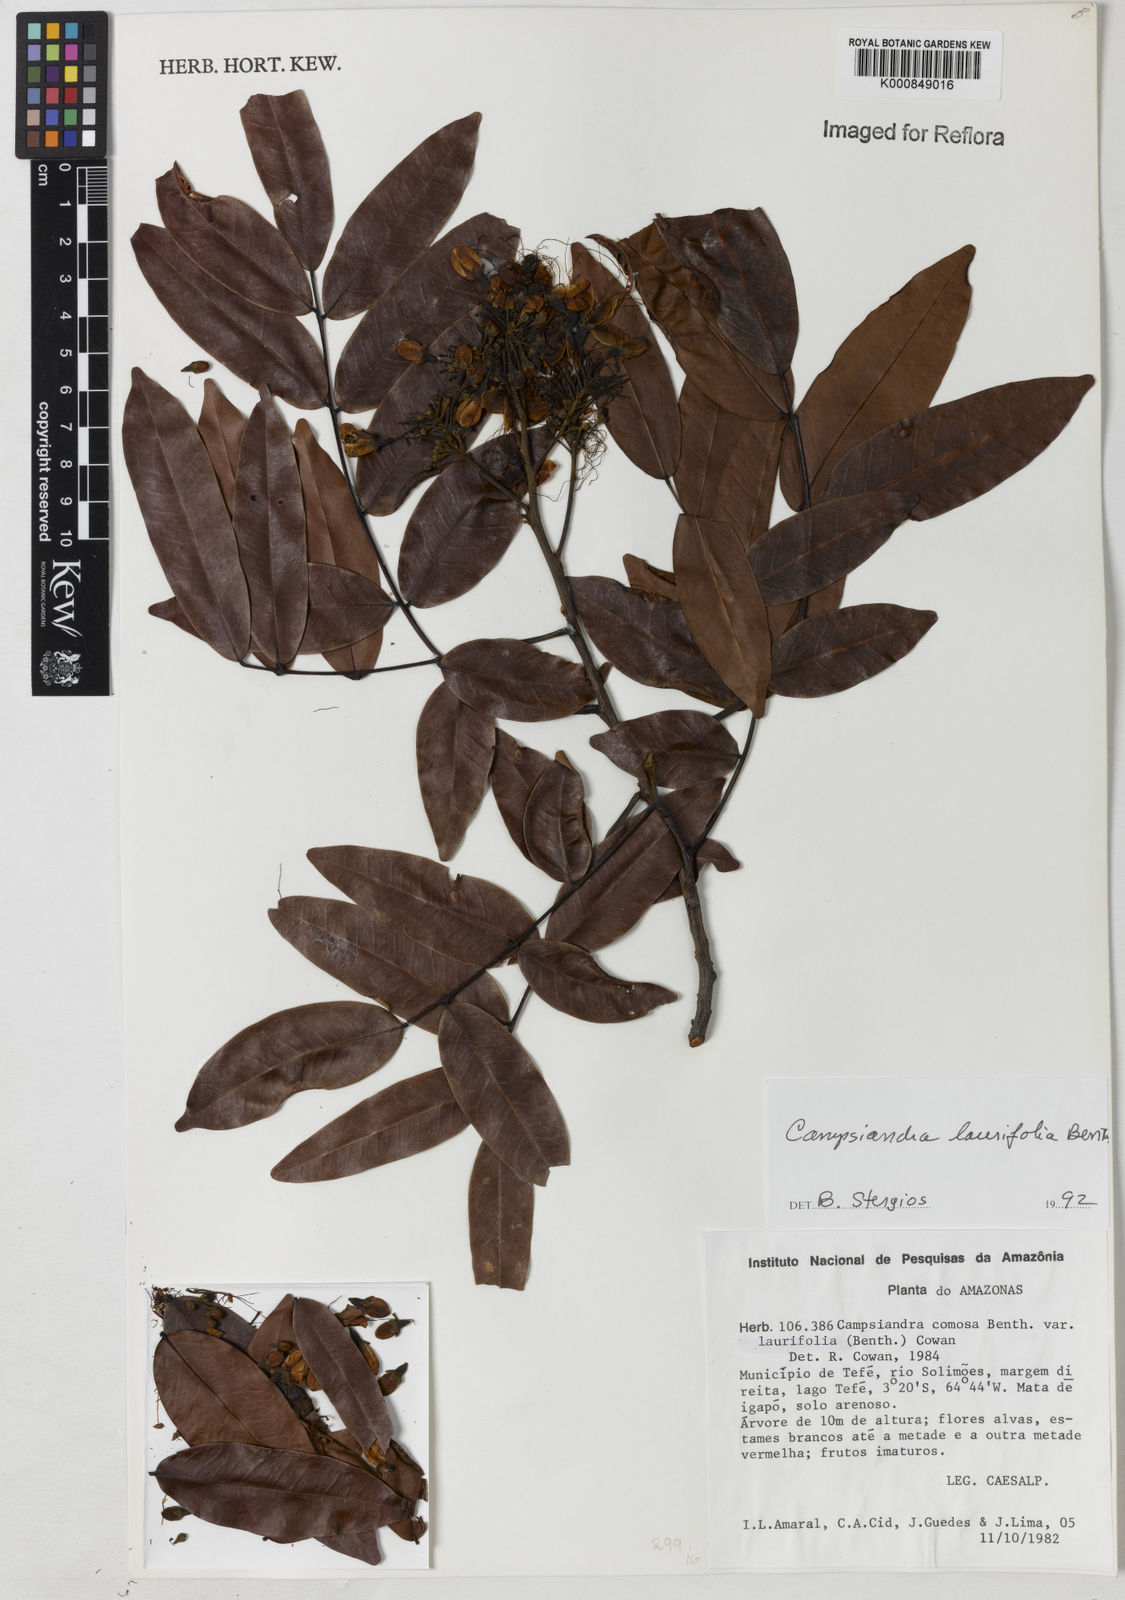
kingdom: Plantae
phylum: Tracheophyta
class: Magnoliopsida
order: Fabales
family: Fabaceae
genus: Campsiandra
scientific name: Campsiandra laurifolia
